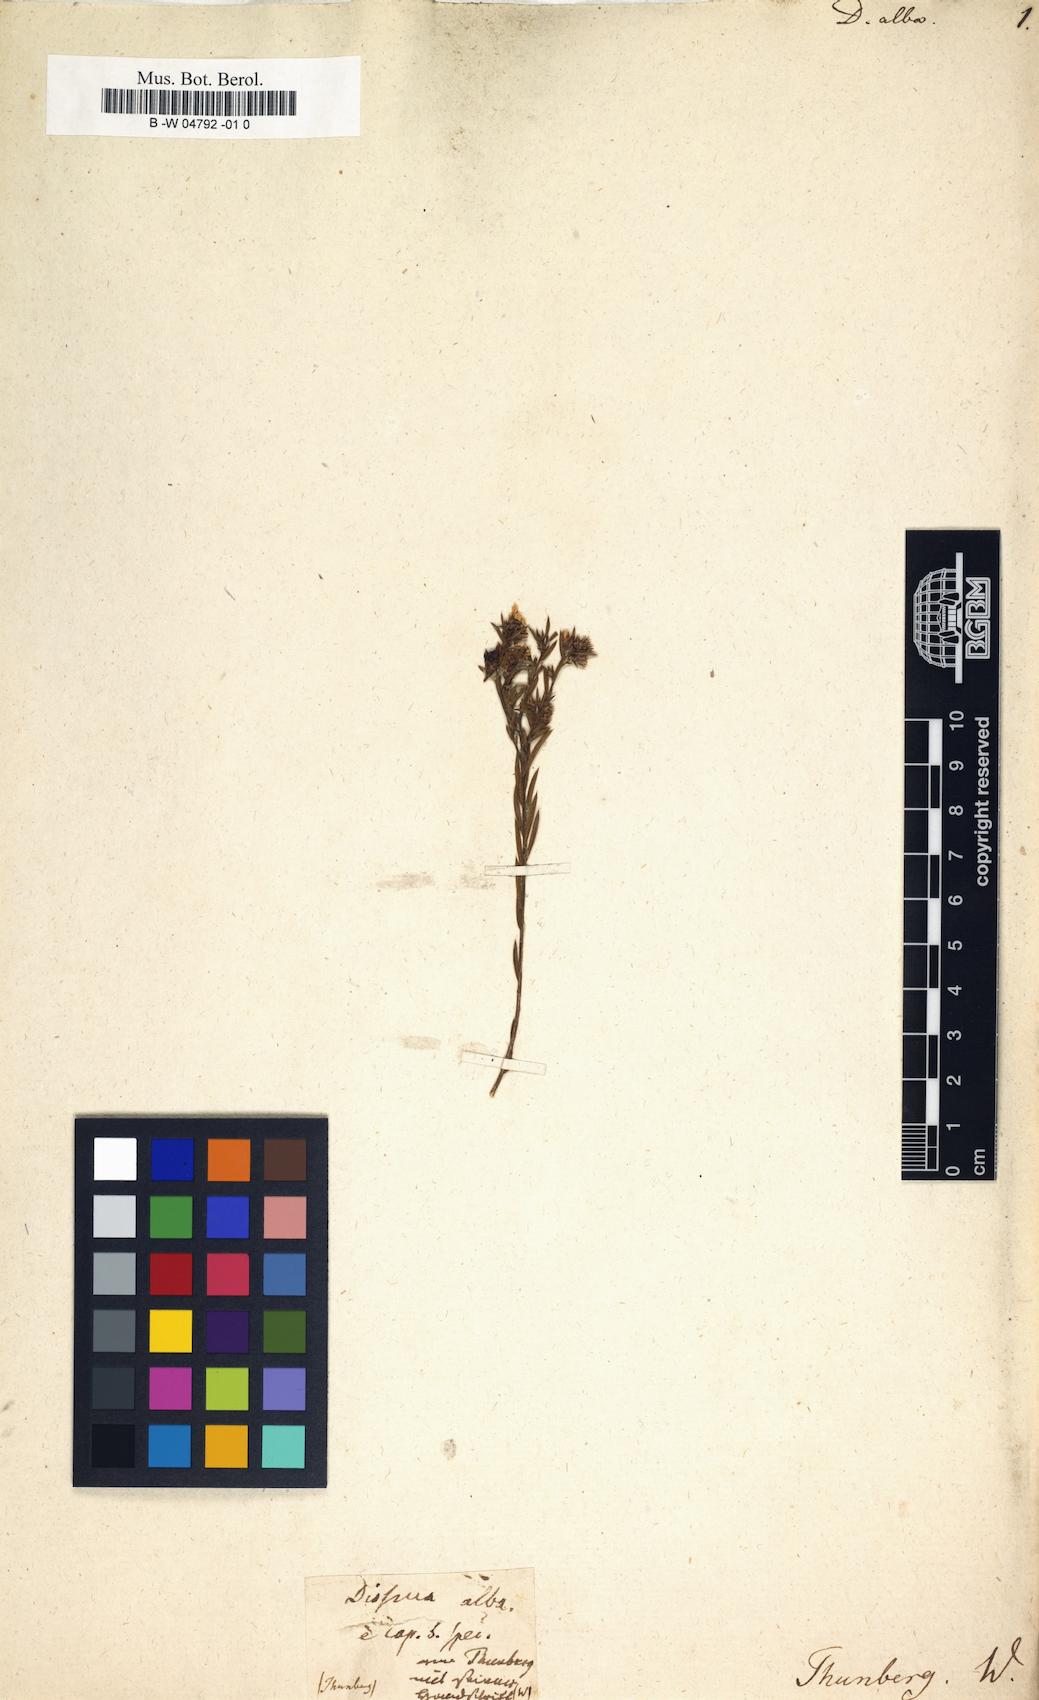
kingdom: Plantae
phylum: Tracheophyta
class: Magnoliopsida
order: Sapindales
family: Rutaceae
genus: Coleonema
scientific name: Coleonema album
